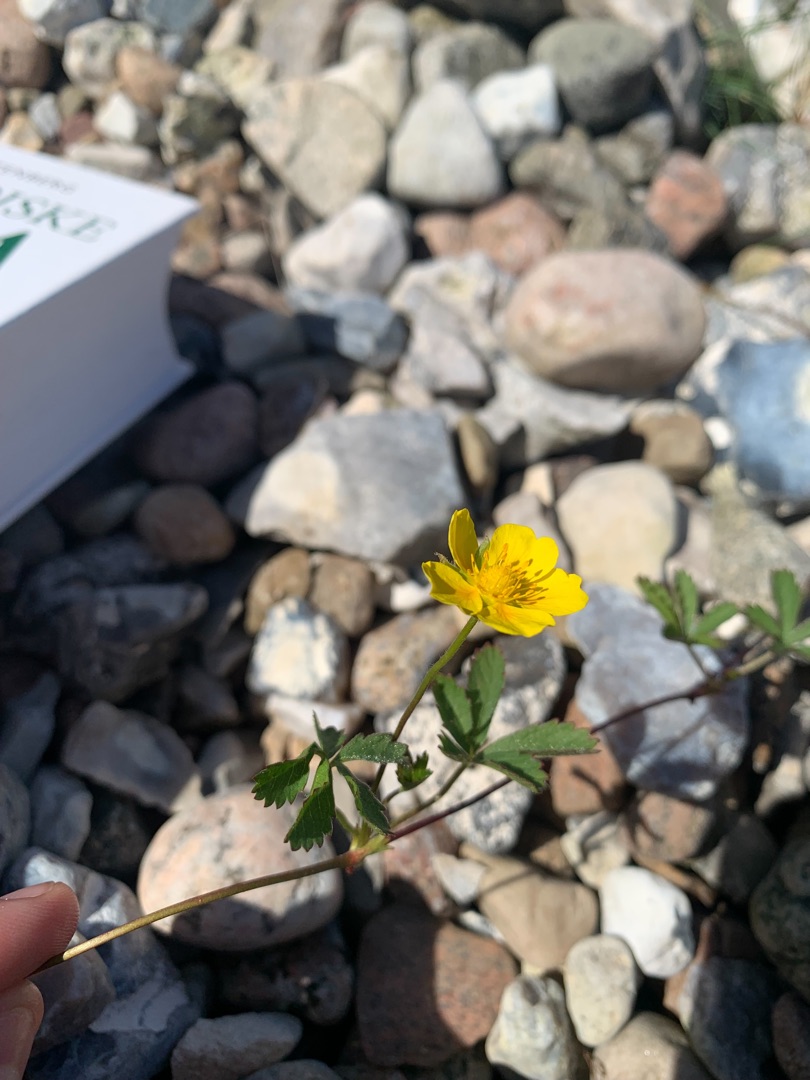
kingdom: Plantae
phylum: Tracheophyta
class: Magnoliopsida
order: Rosales
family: Rosaceae
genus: Potentilla
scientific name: Potentilla reptans
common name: Krybende potentil
